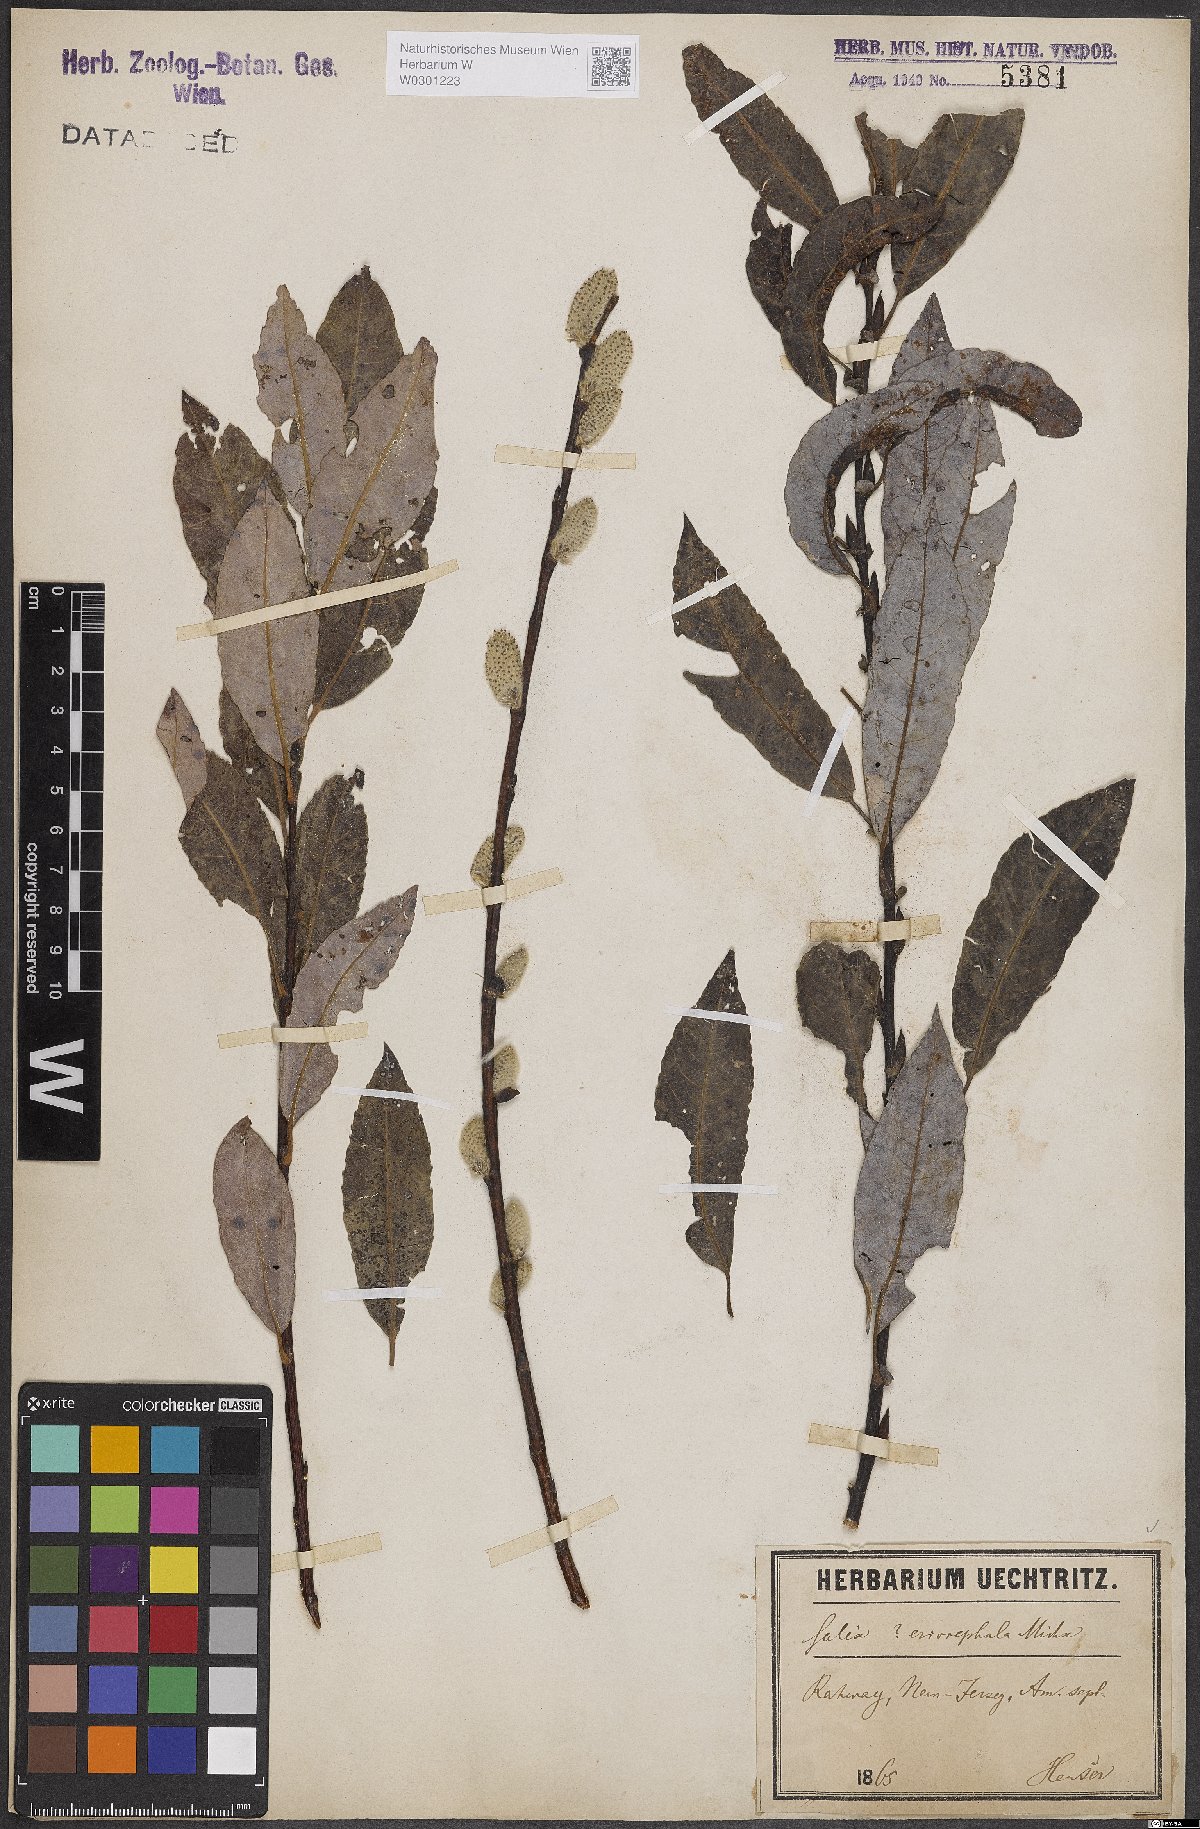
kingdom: Plantae
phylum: Tracheophyta
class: Magnoliopsida
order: Malpighiales
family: Salicaceae
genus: Salix
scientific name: Salix eriocephala
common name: Heart-leaved willow
